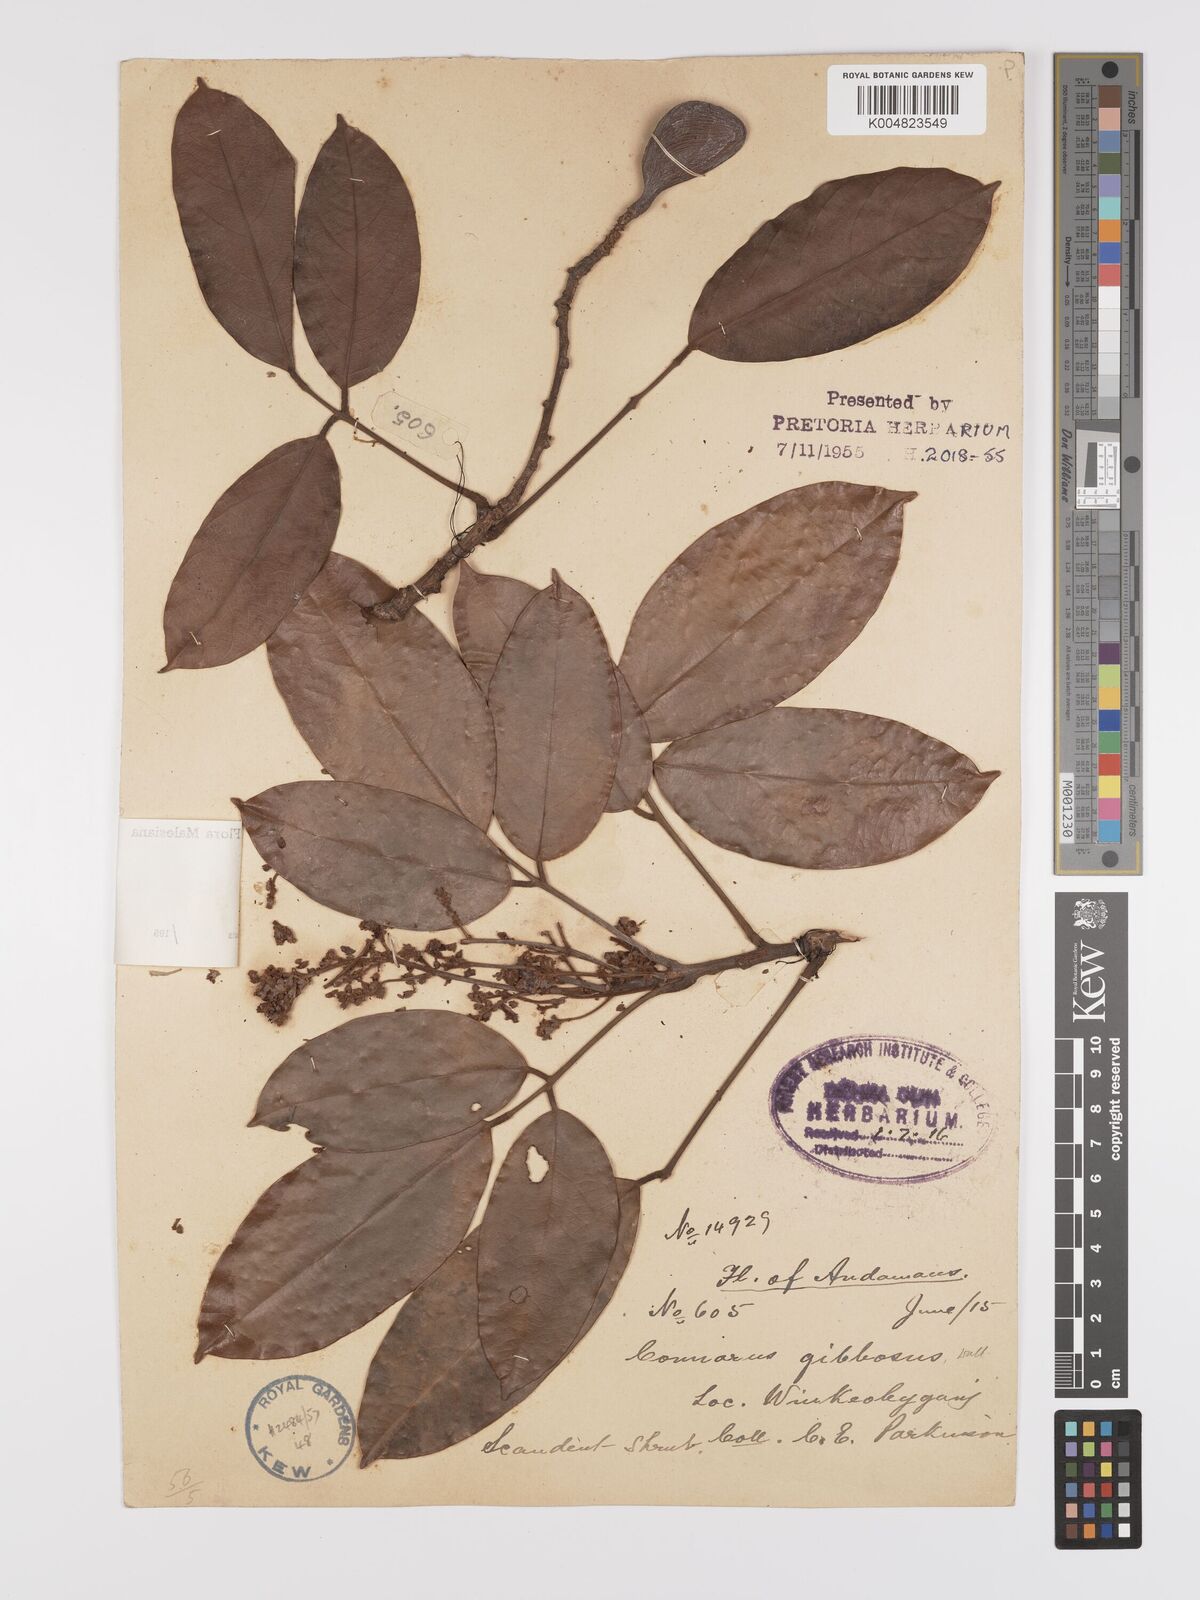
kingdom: Plantae
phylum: Tracheophyta
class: Magnoliopsida
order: Oxalidales
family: Connaraceae
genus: Connarus
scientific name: Connarus kingii
